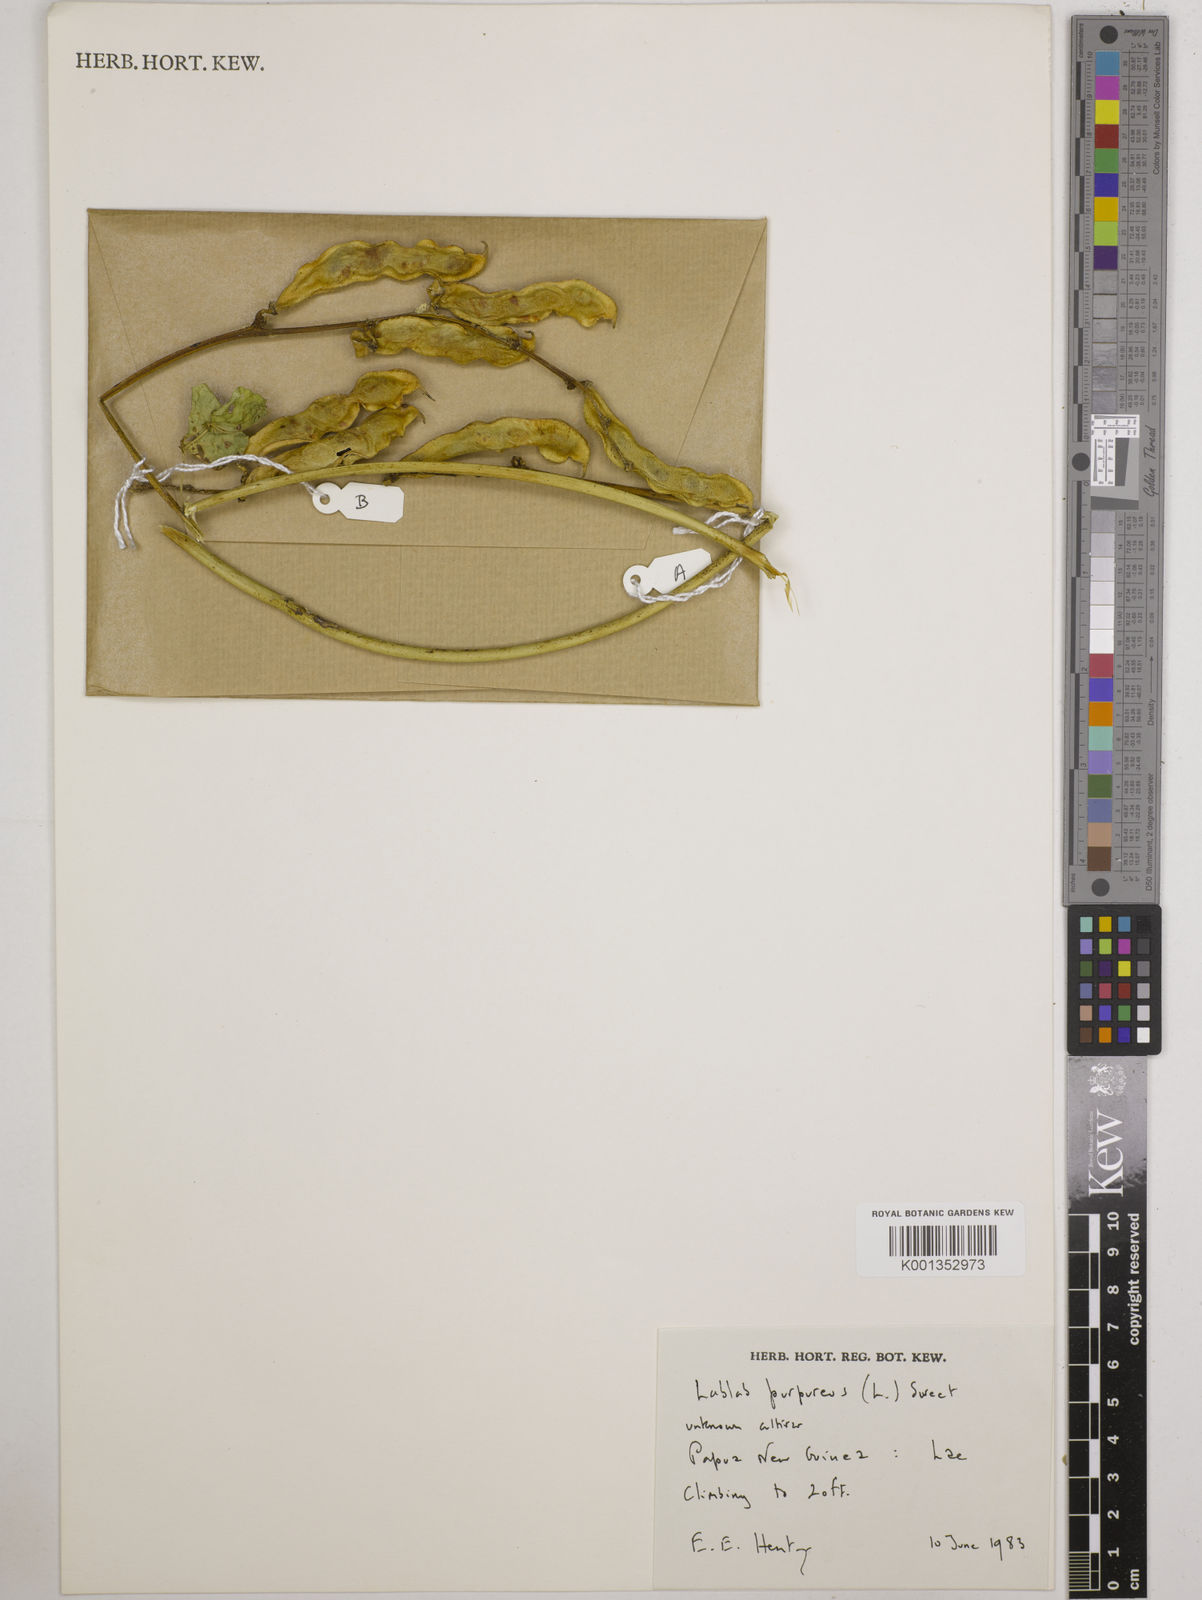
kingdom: Plantae
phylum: Tracheophyta
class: Magnoliopsida
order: Fabales
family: Fabaceae
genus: Lablab
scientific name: Lablab purpureus
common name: Lablab-bean
